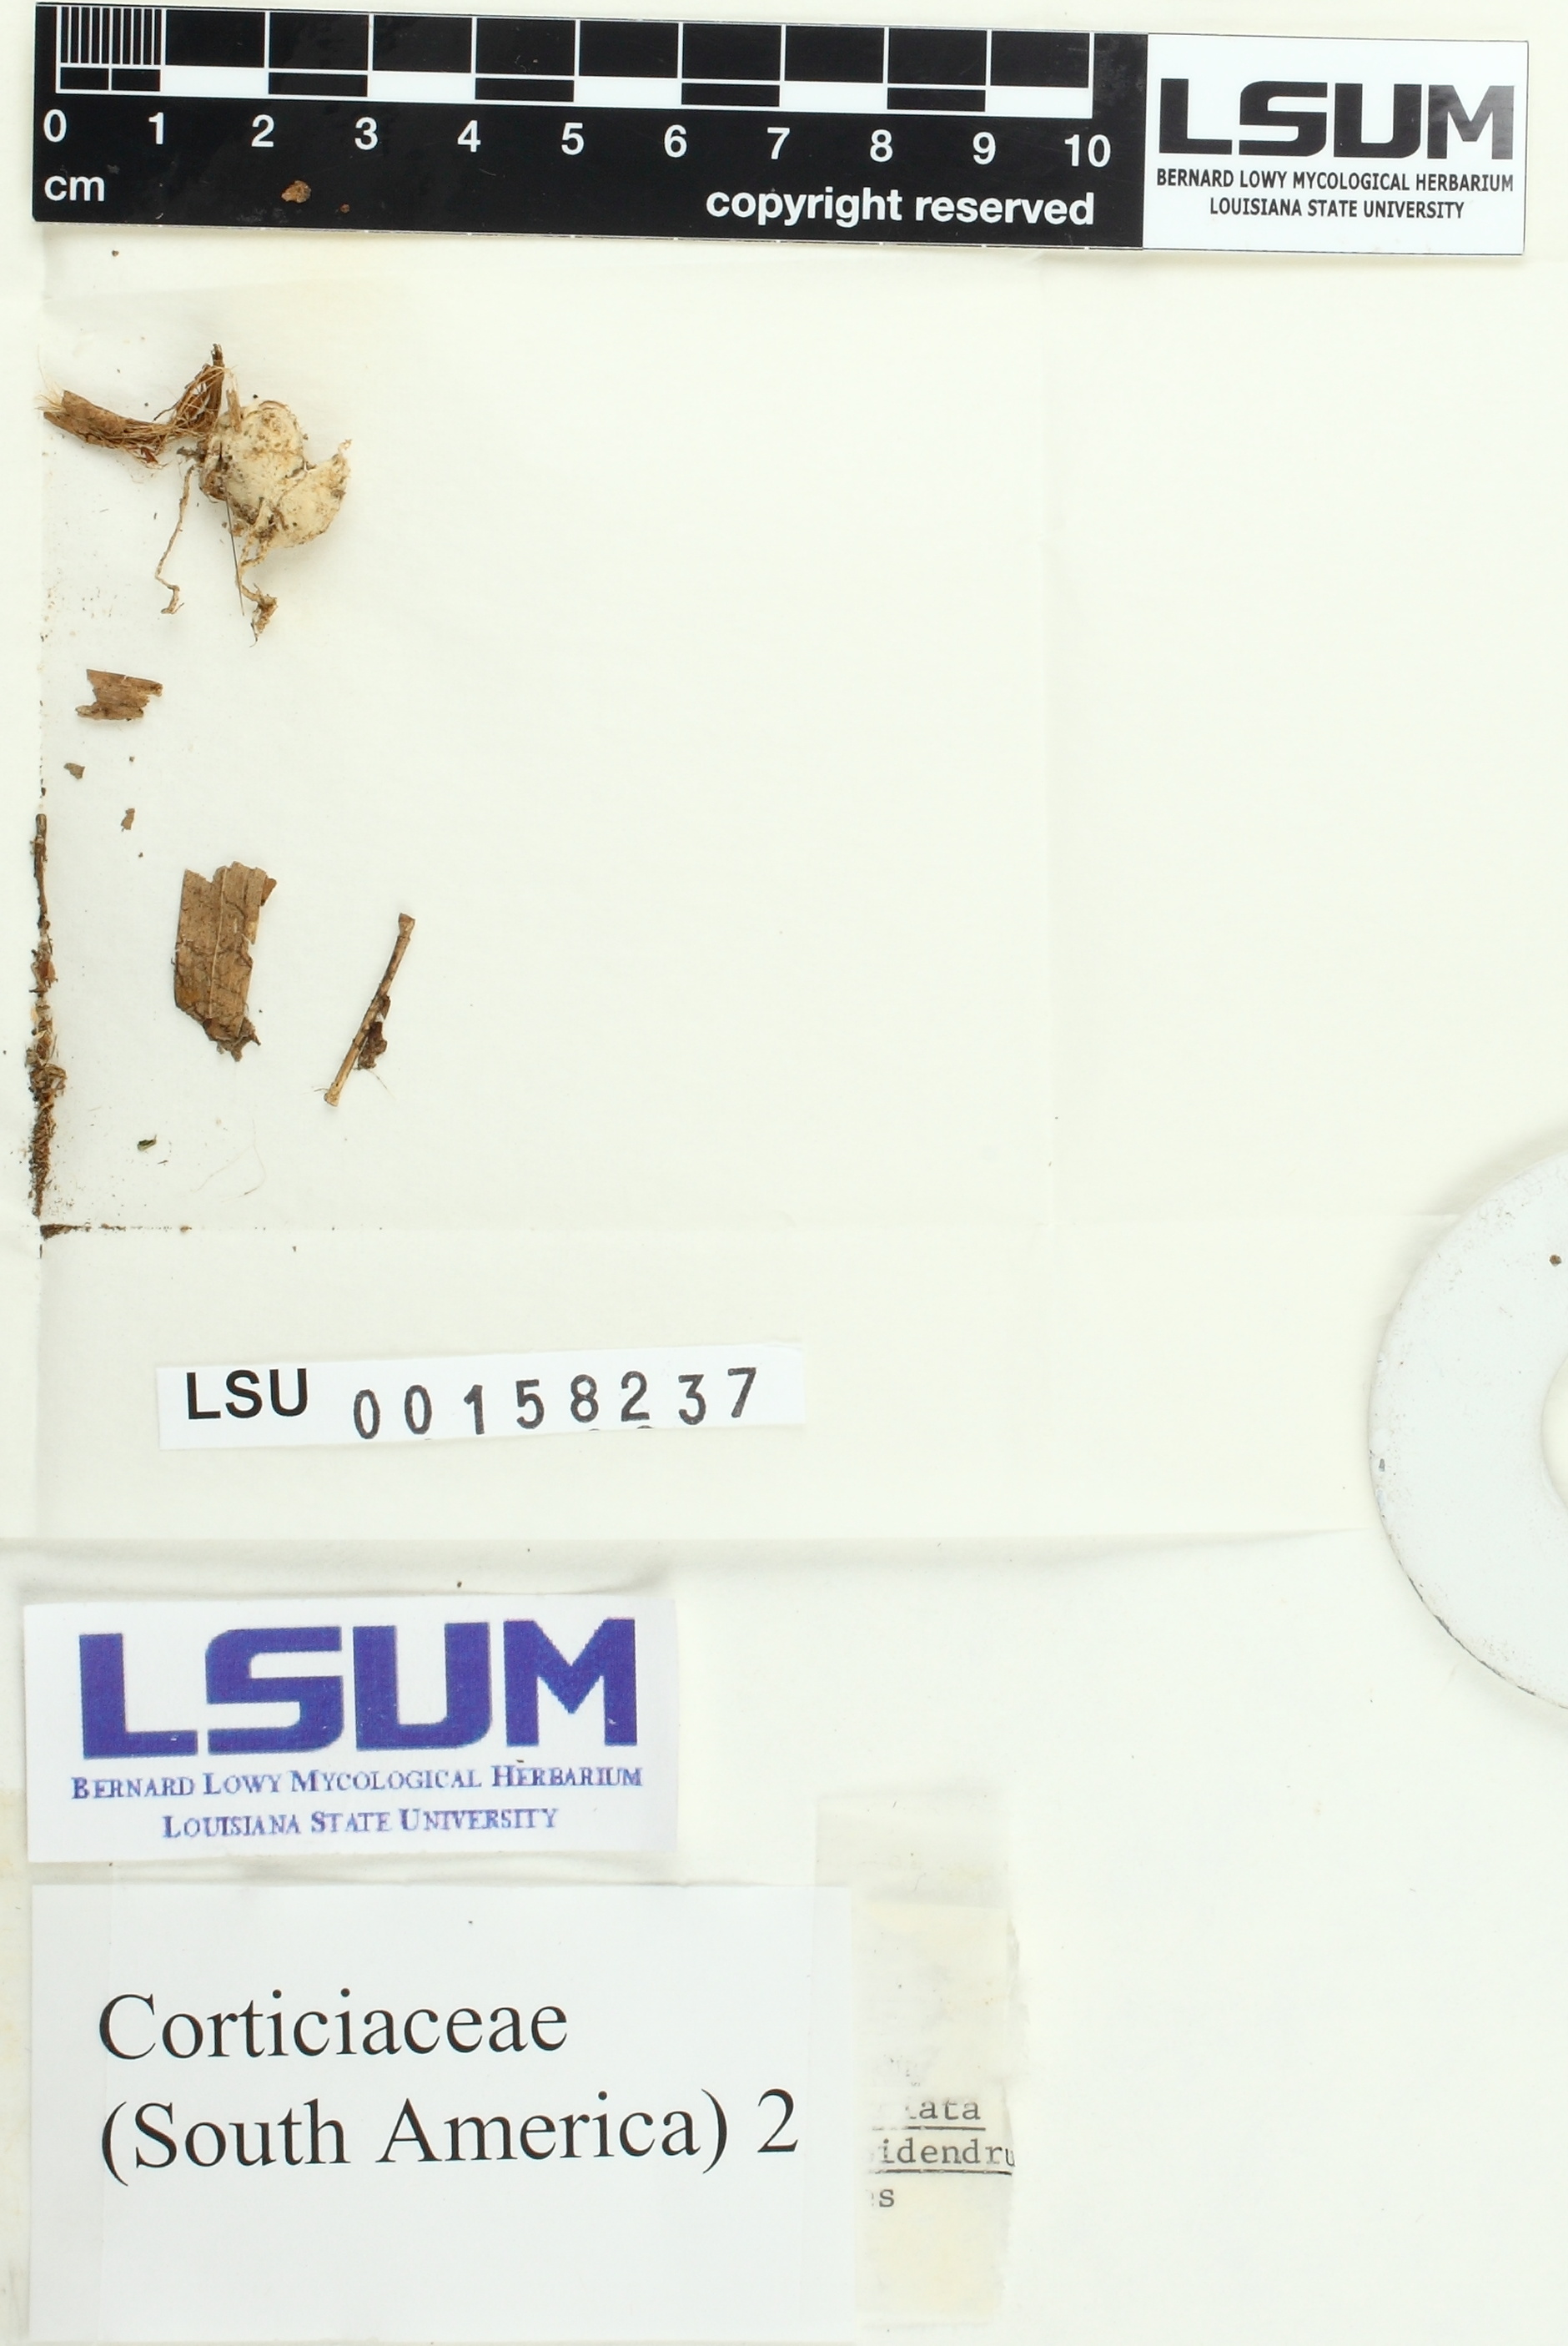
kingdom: Fungi
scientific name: Fungi
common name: Fungi
